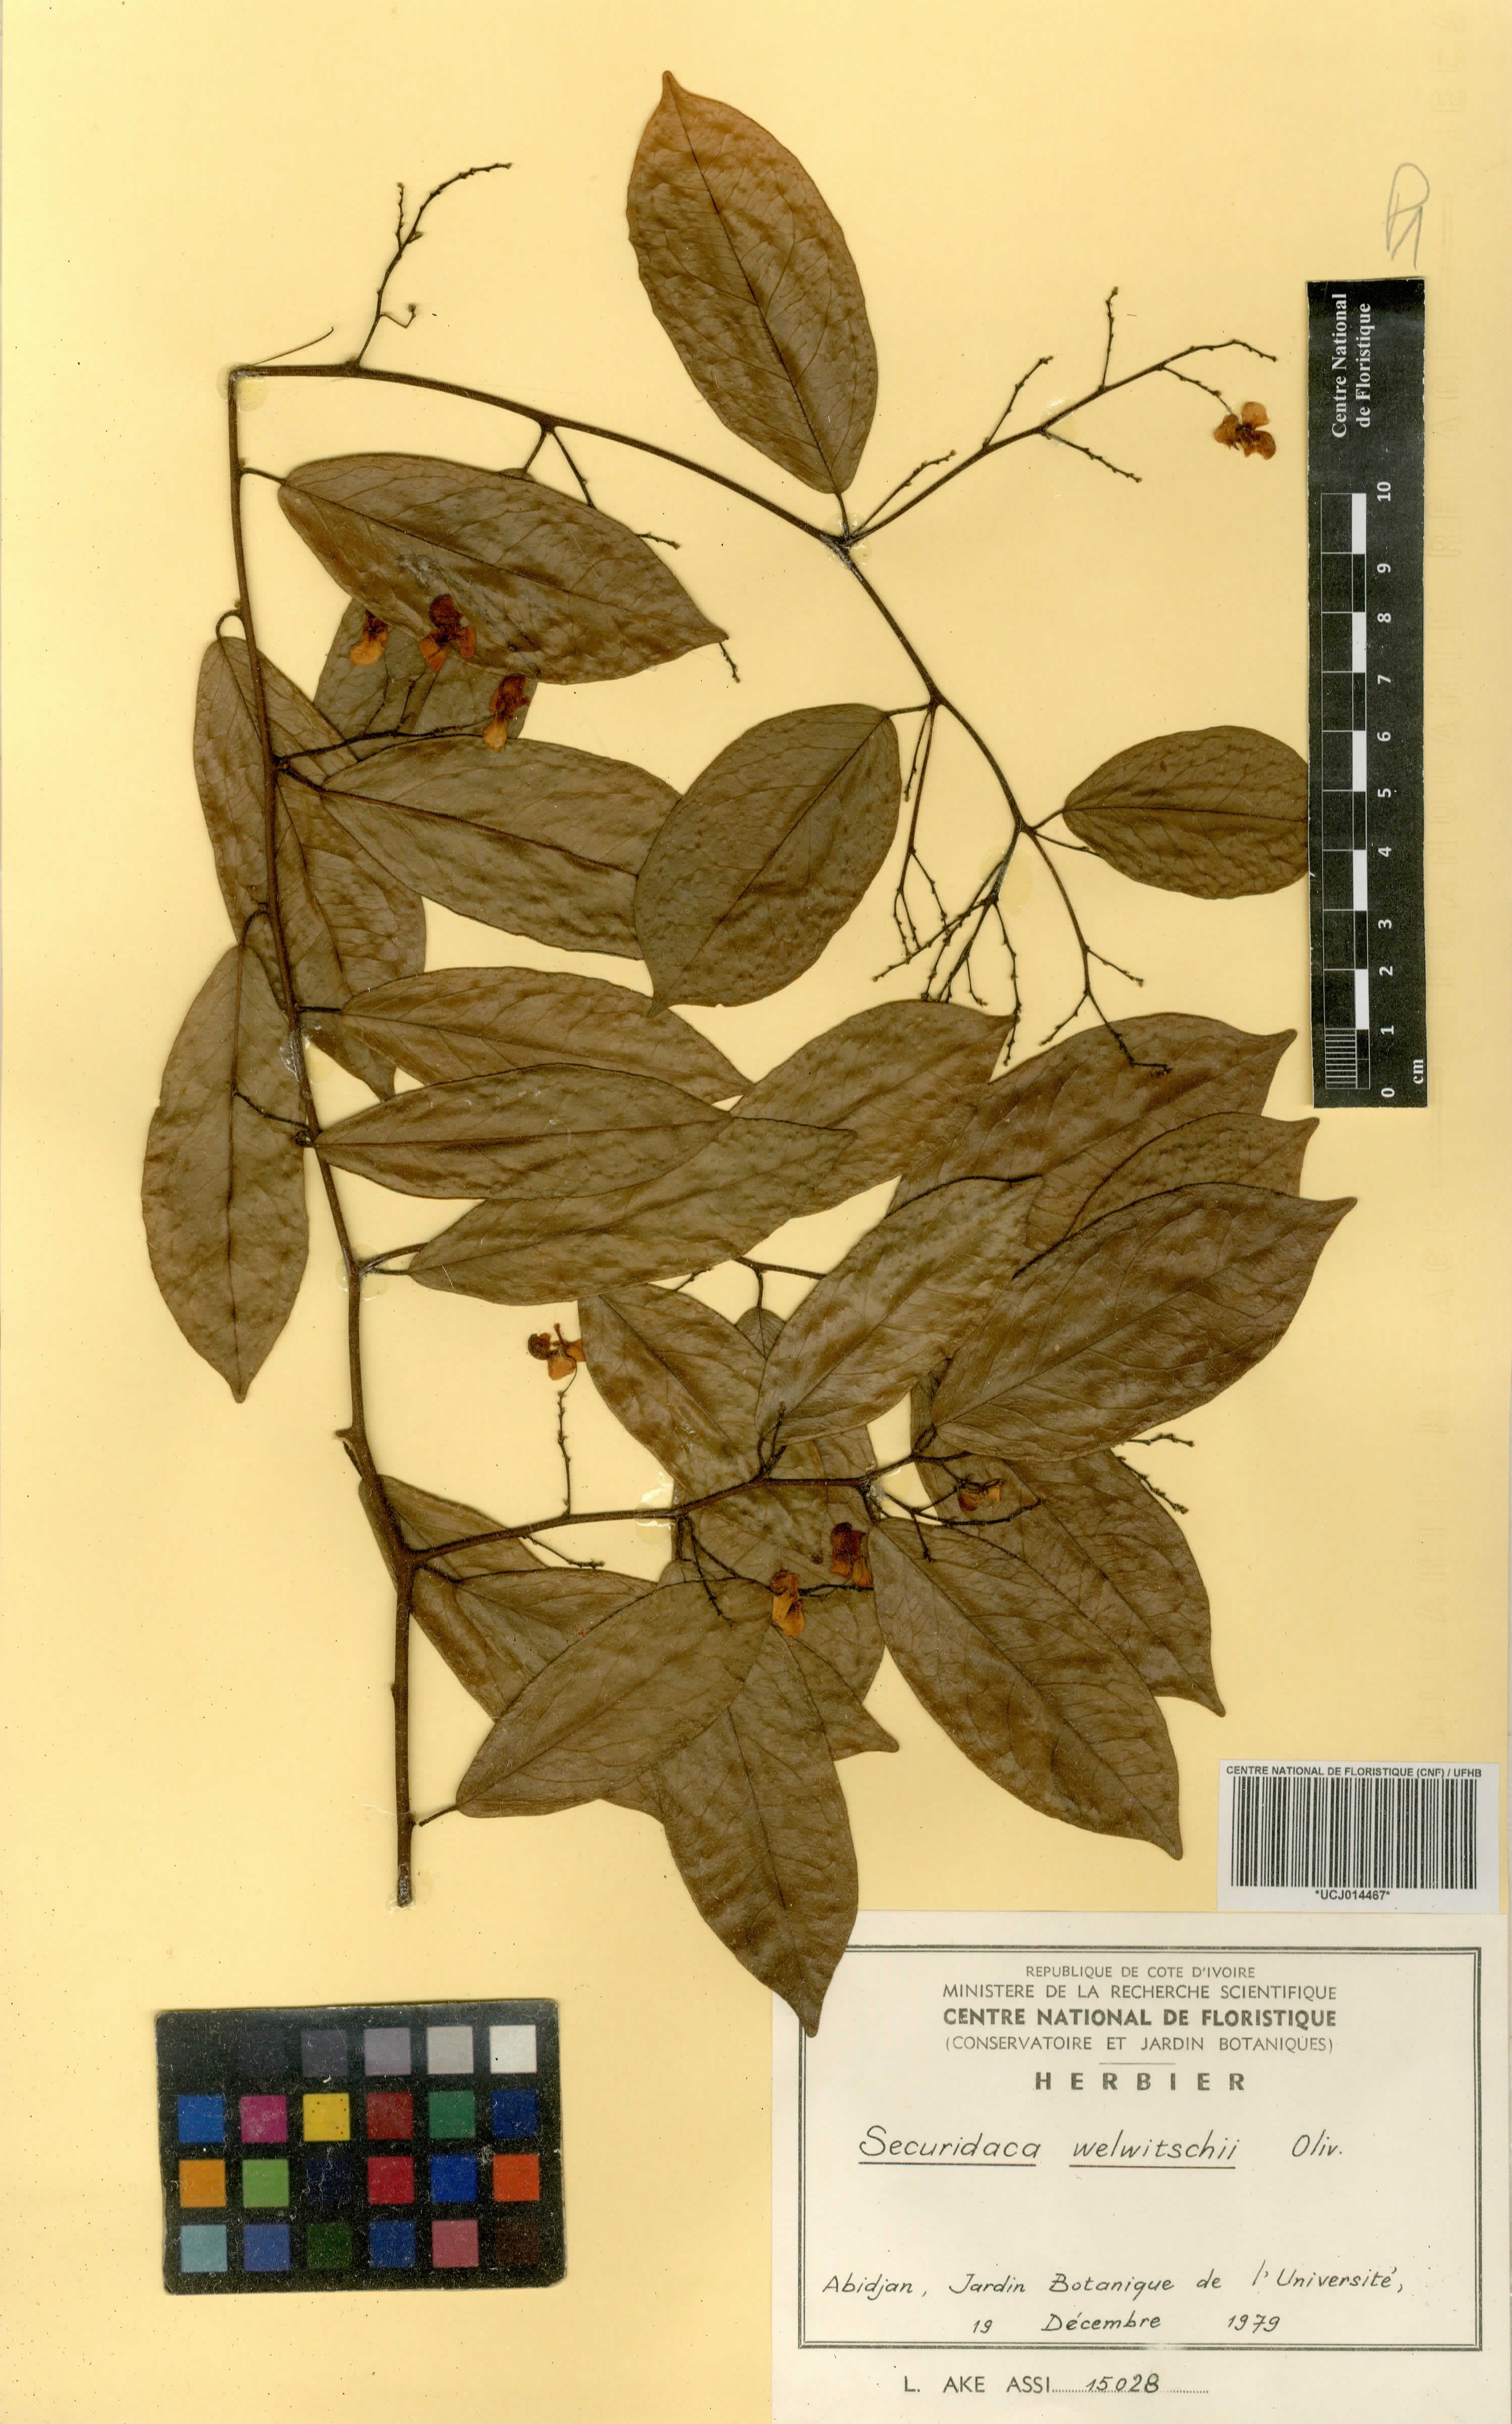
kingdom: Plantae
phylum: Tracheophyta
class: Magnoliopsida
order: Fabales
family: Polygalaceae
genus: Securidaca
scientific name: Securidaca welwitschii
